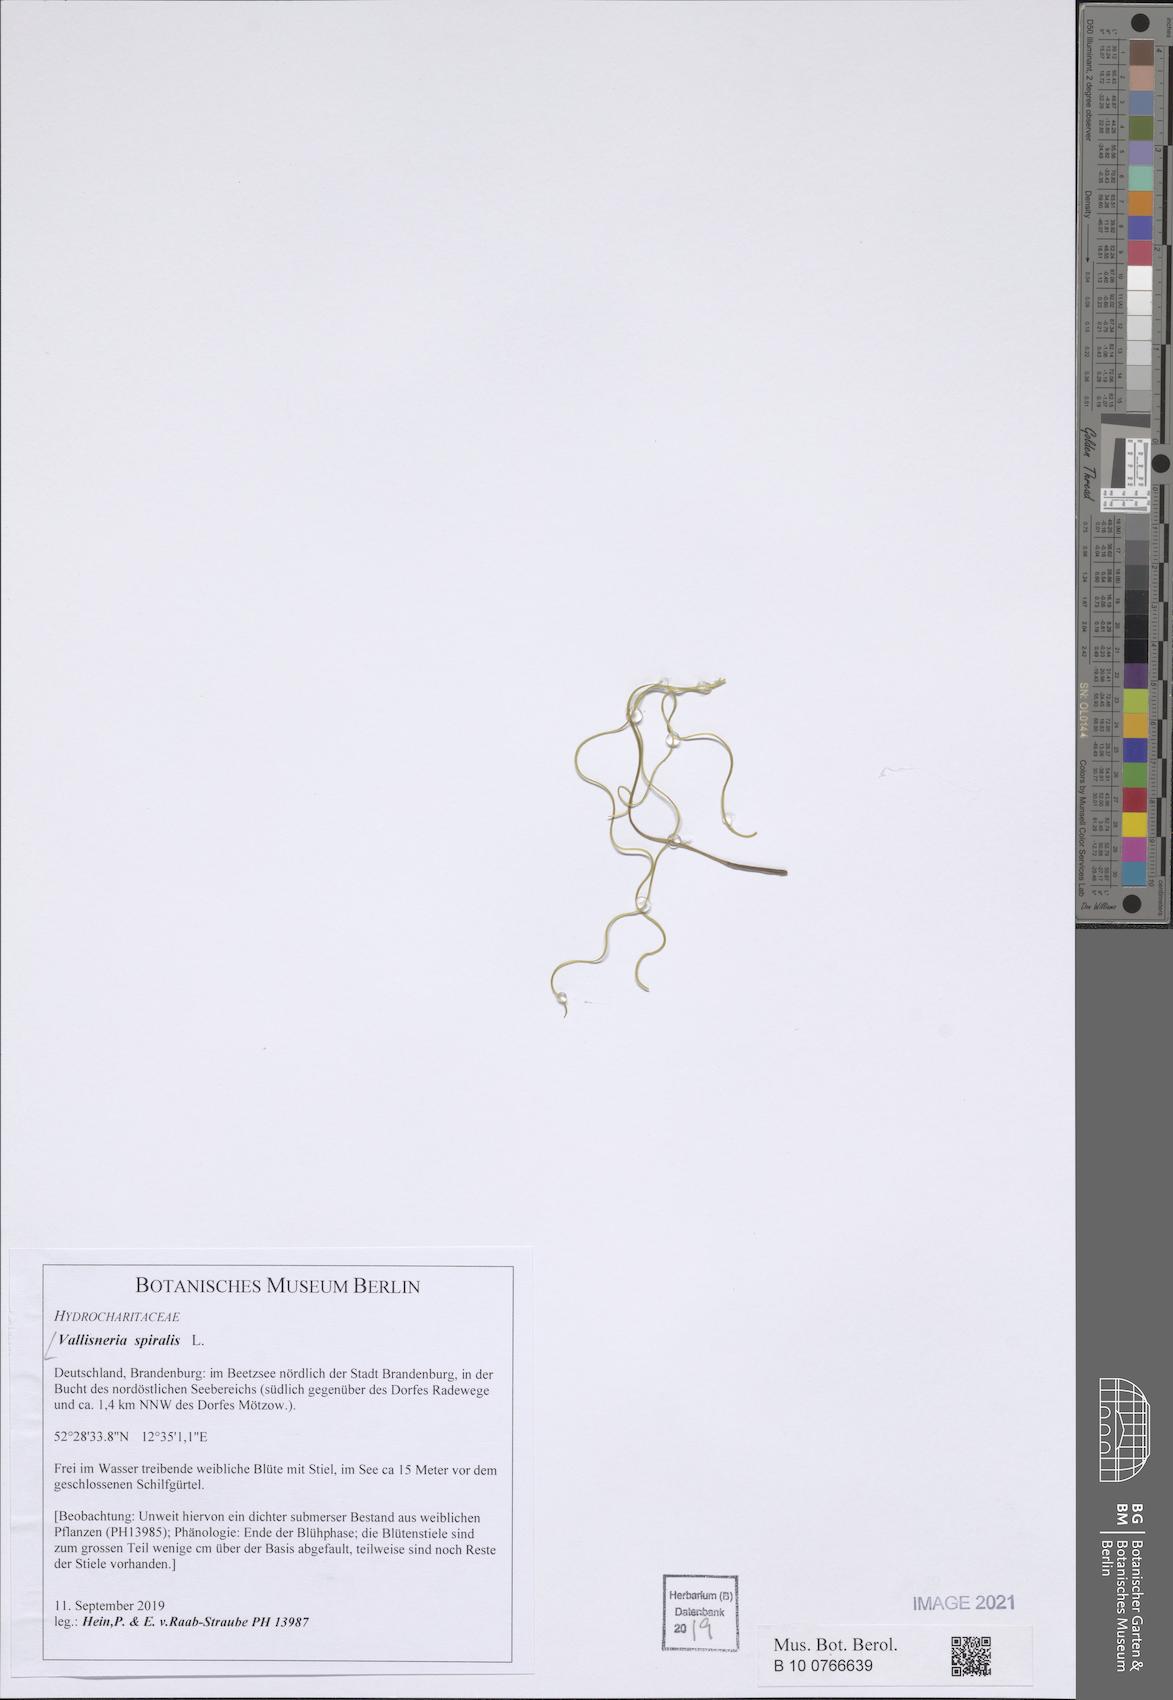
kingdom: Plantae
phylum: Tracheophyta
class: Liliopsida
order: Alismatales
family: Hydrocharitaceae
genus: Vallisneria
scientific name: Vallisneria spiralis
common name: Tapegrass
